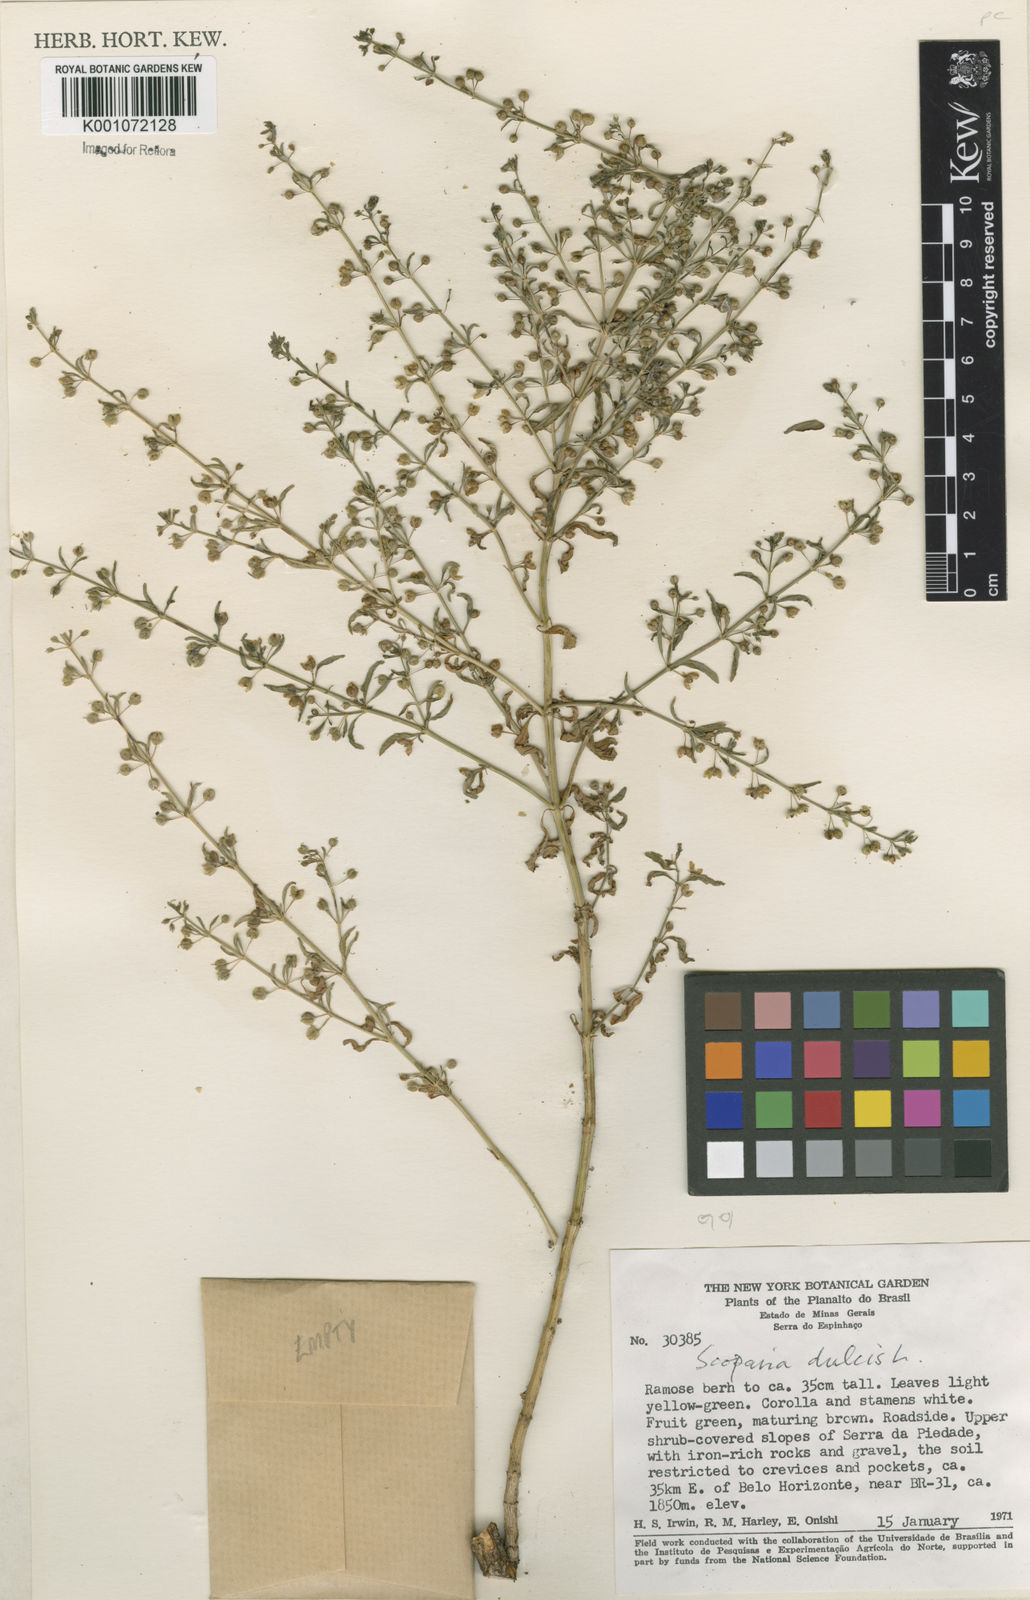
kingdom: Plantae
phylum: Tracheophyta
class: Magnoliopsida
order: Lamiales
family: Plantaginaceae
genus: Scoparia
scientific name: Scoparia dulcis
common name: Scoparia-weed
